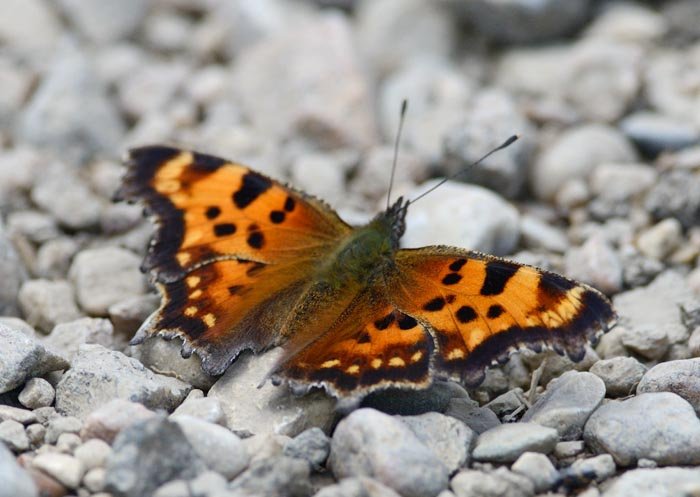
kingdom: Animalia
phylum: Arthropoda
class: Insecta
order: Lepidoptera
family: Nymphalidae
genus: Polygonia
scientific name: Polygonia faunus
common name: Green Comma
